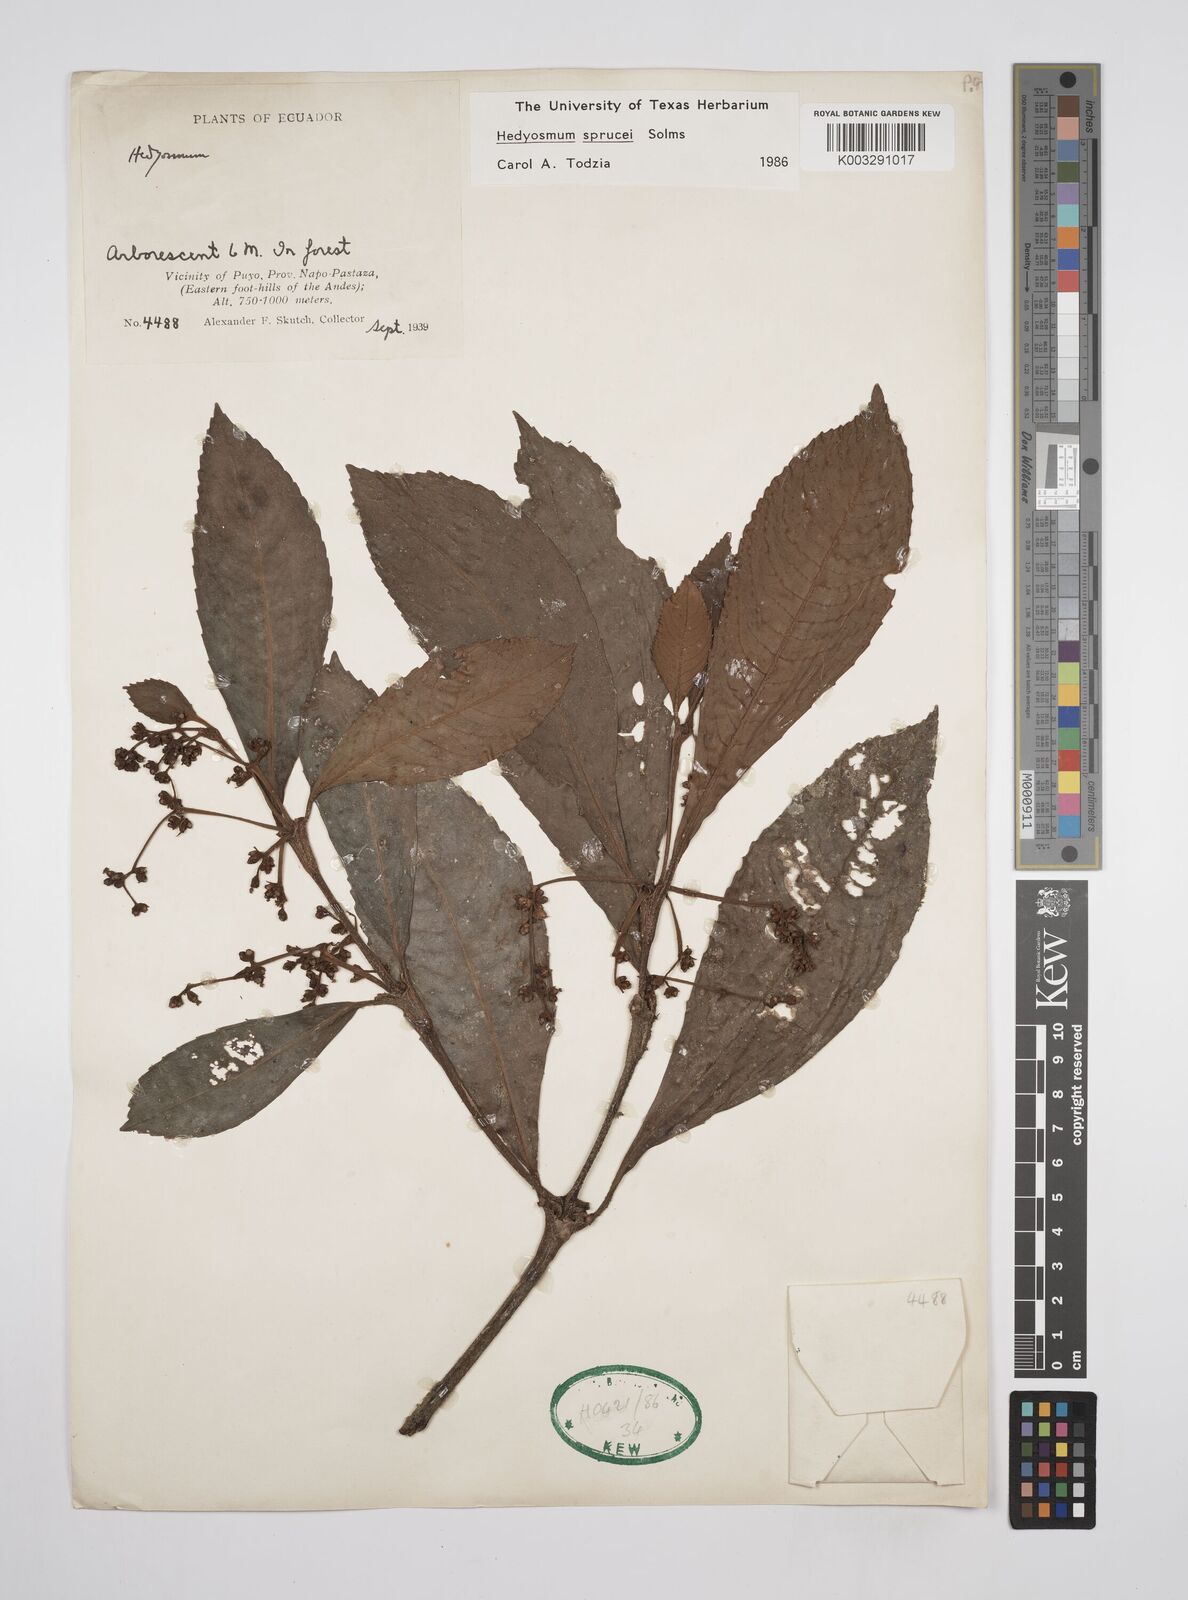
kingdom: Plantae
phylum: Tracheophyta
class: Magnoliopsida
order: Chloranthales
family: Chloranthaceae
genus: Hedyosmum
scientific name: Hedyosmum sprucei
